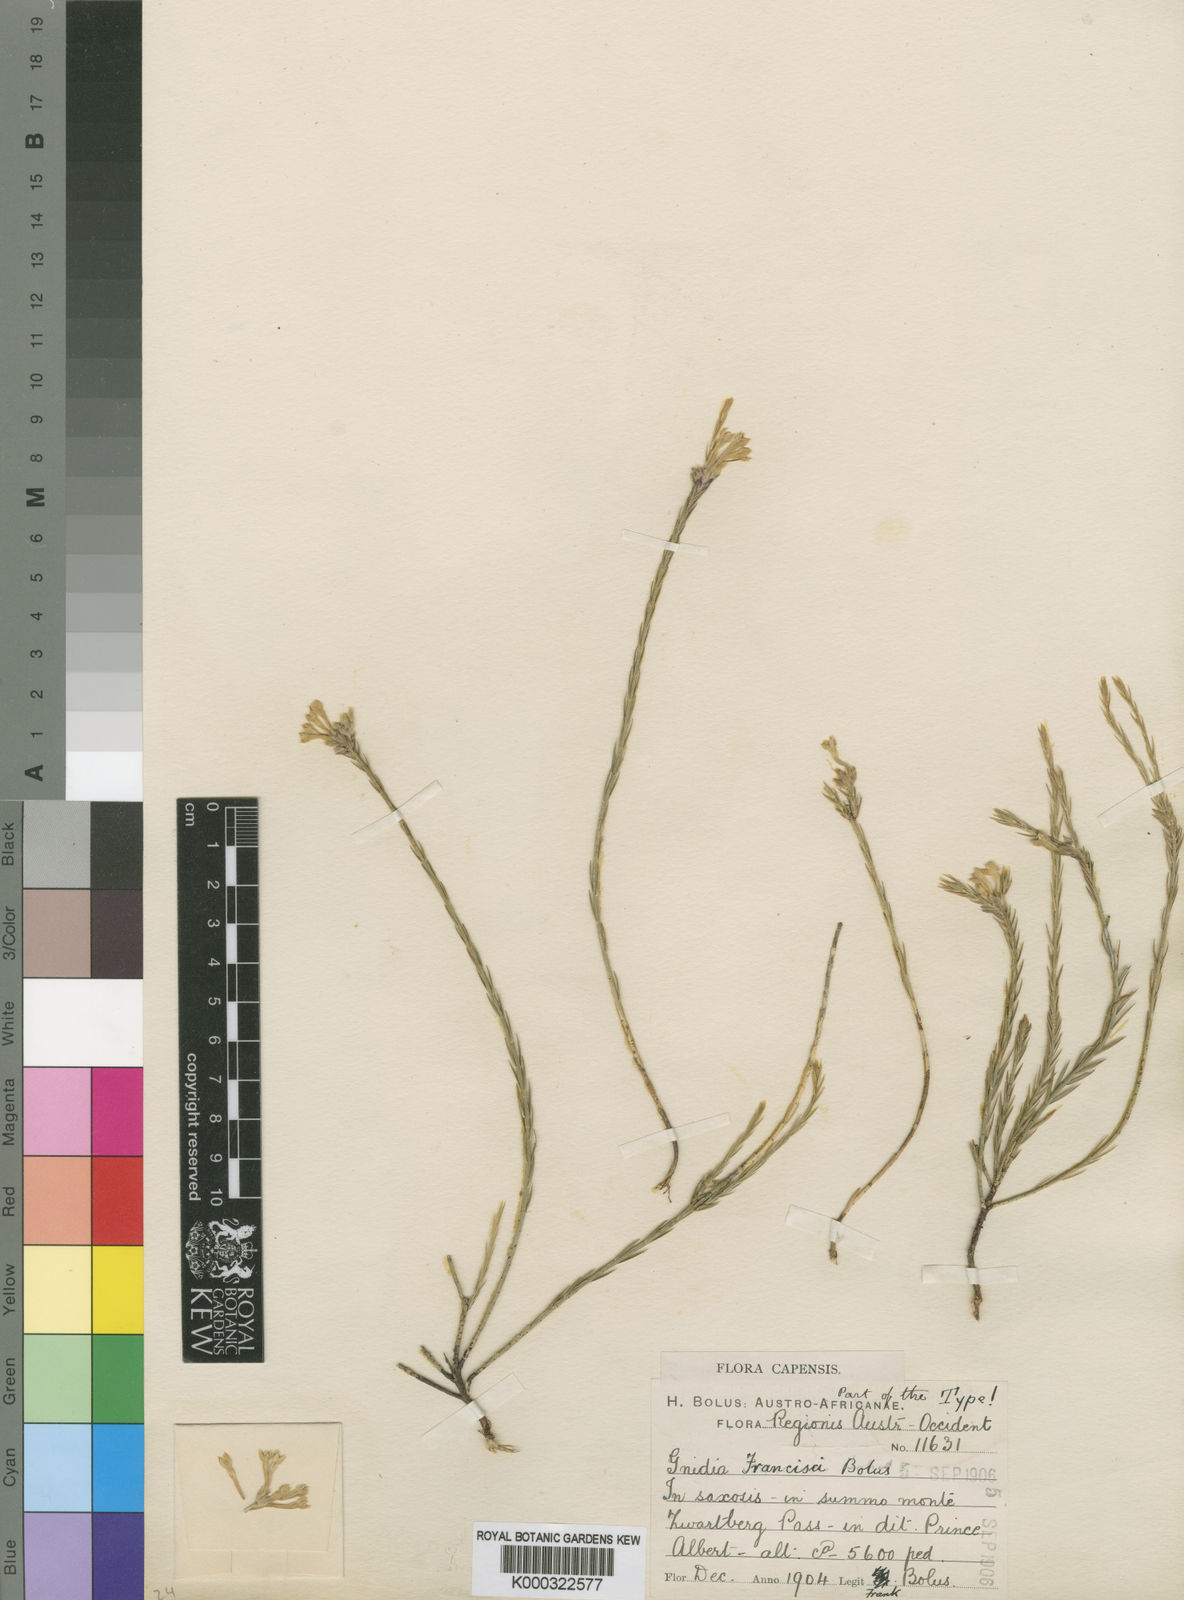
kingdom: Plantae
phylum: Tracheophyta
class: Magnoliopsida
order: Malvales
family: Thymelaeaceae
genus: Gnidia
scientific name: Gnidia francisci
